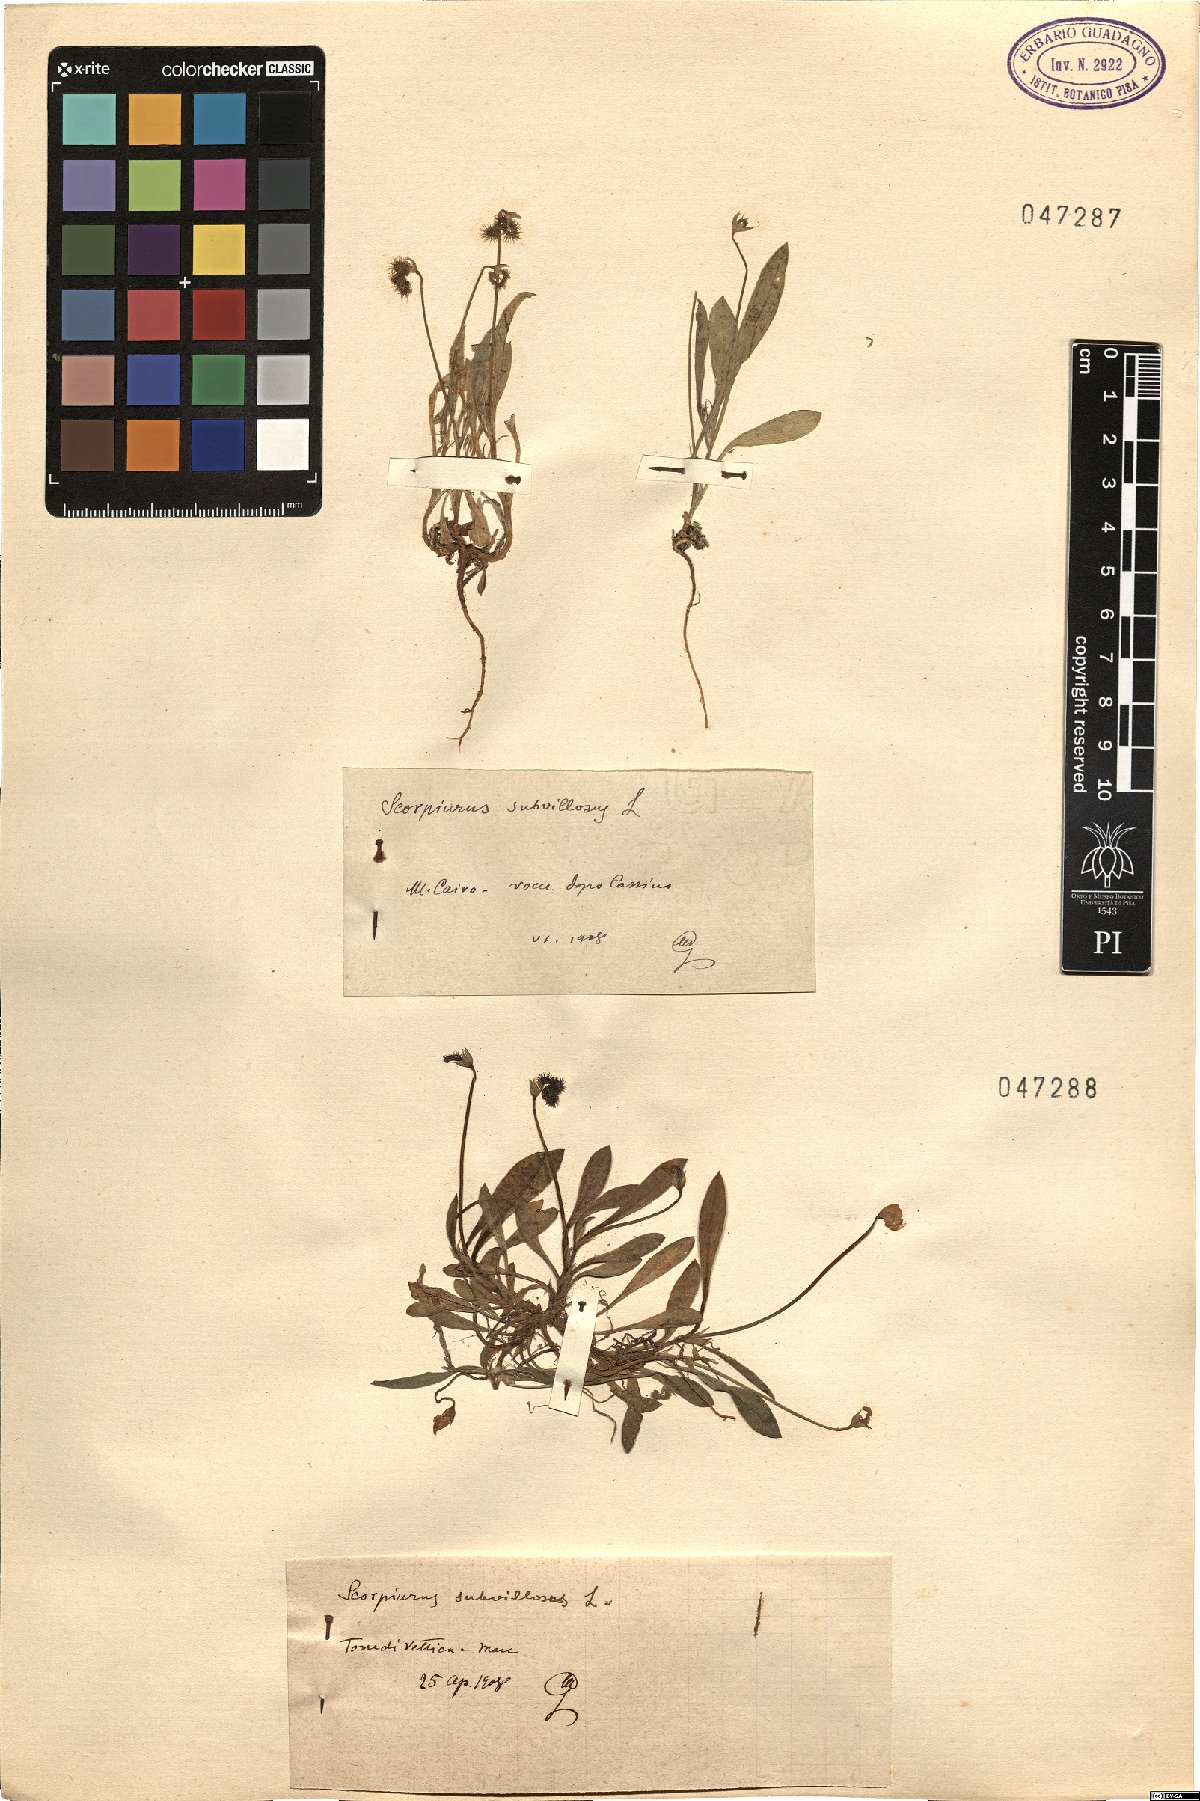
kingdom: Plantae
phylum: Tracheophyta
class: Magnoliopsida
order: Fabales
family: Fabaceae
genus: Scorpiurus
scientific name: Scorpiurus muricatus
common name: Caterpillar-plant
